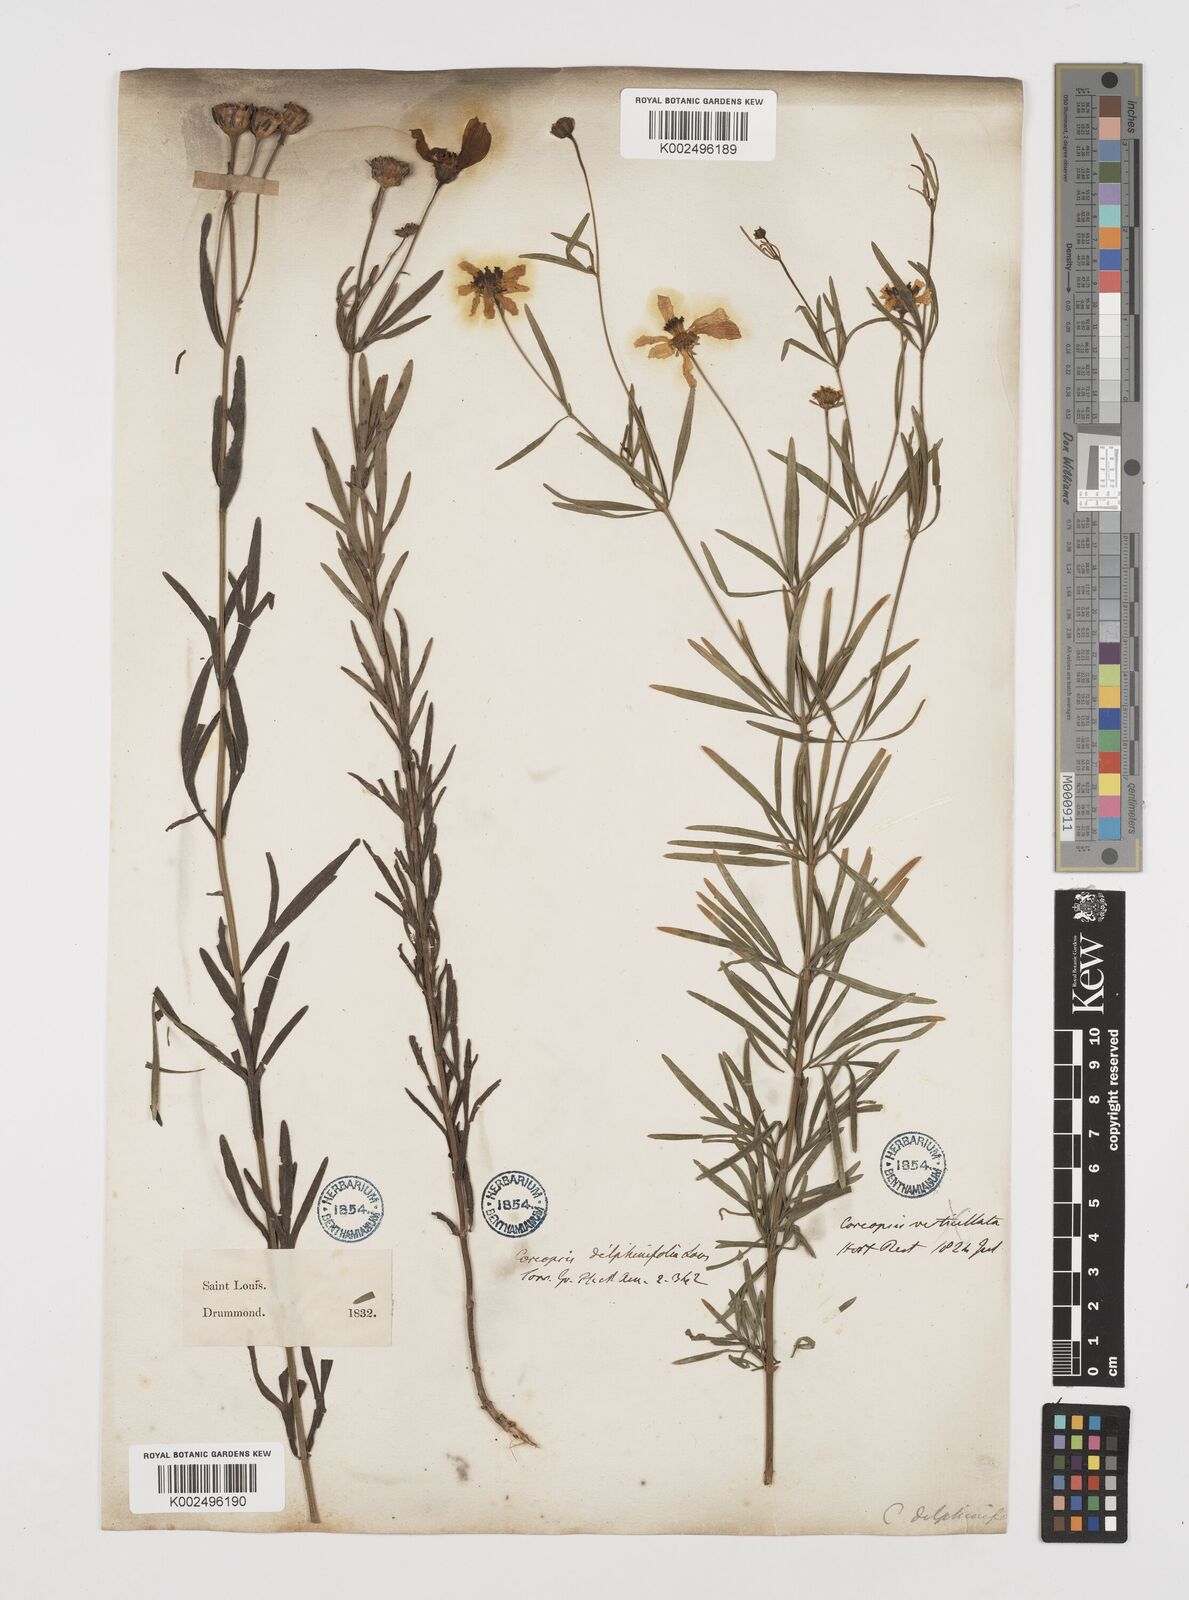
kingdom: Plantae
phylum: Tracheophyta
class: Magnoliopsida
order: Asterales
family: Asteraceae
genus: Coreopsis
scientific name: Coreopsis palmata
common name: Prairie coreopsis
